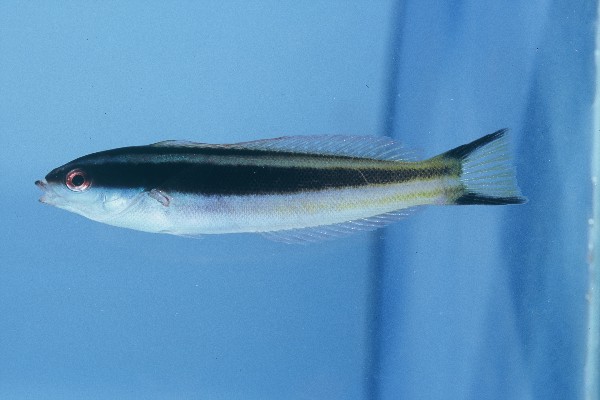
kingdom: Animalia
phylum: Chordata
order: Perciformes
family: Labridae
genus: Pseudocoris
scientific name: Pseudocoris occidentalis
